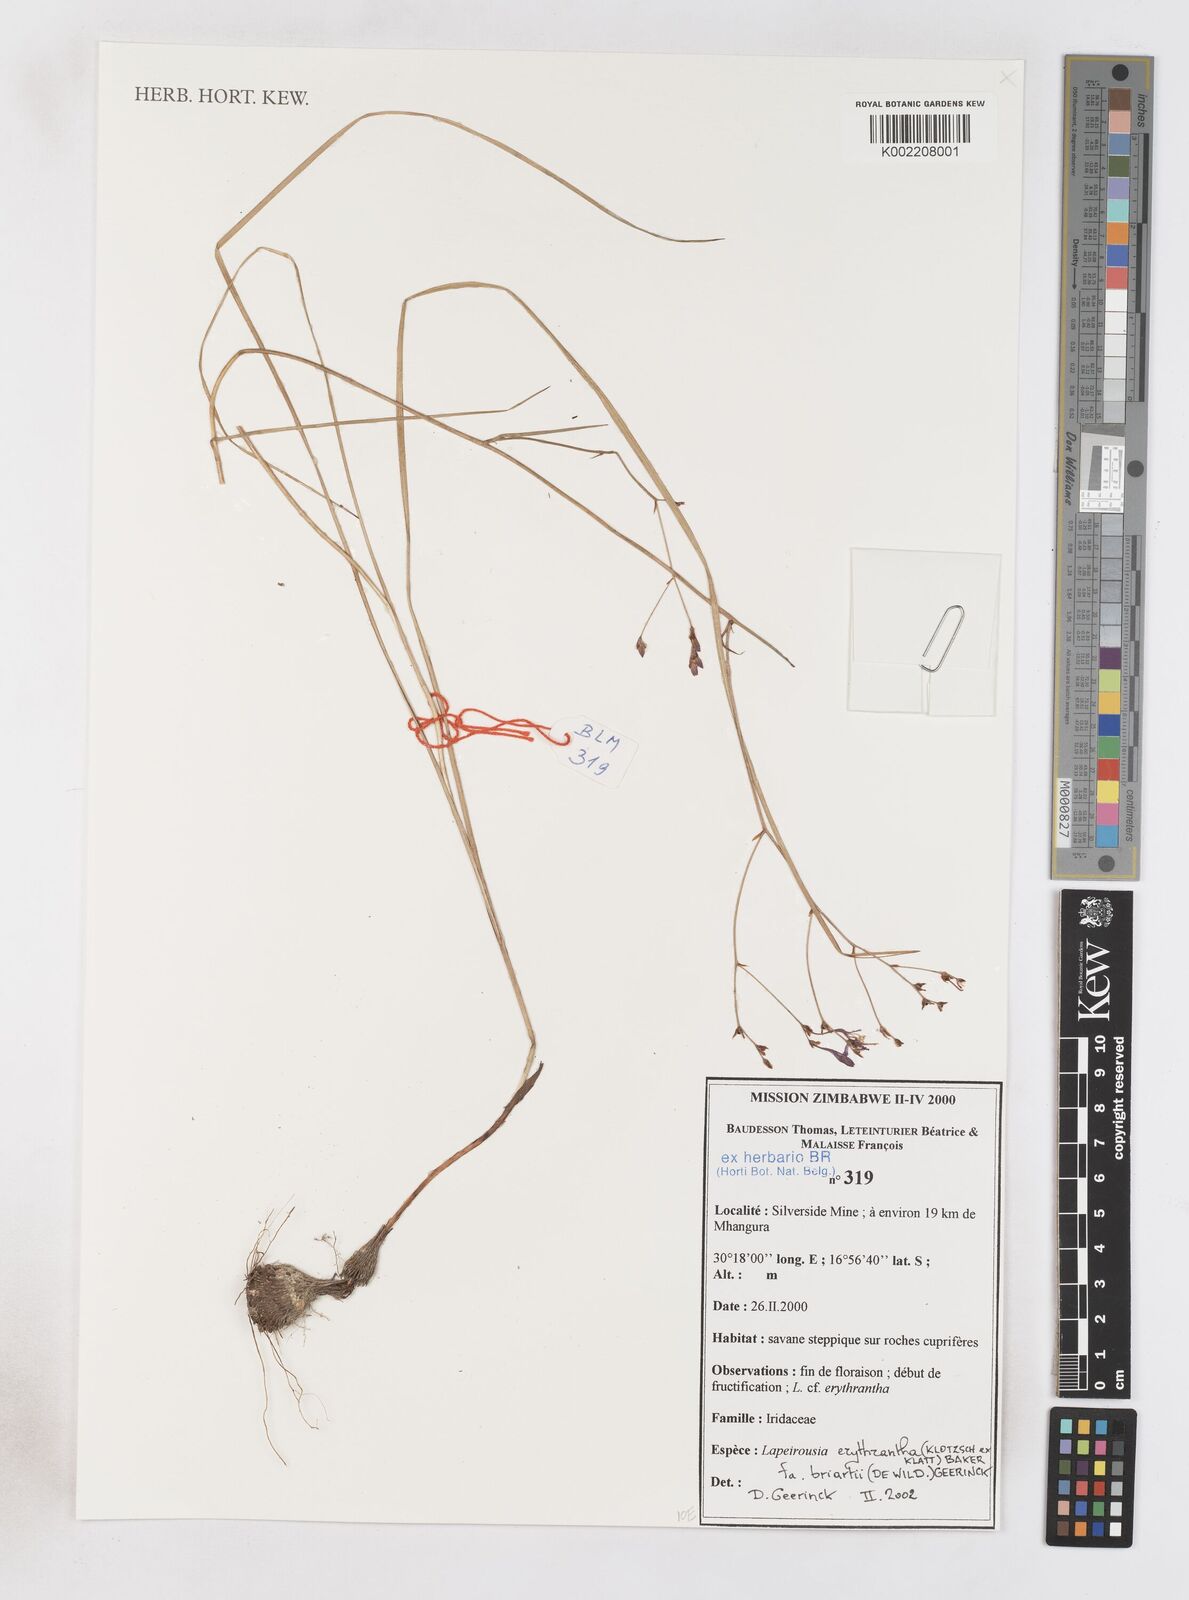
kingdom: Plantae
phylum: Tracheophyta
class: Liliopsida
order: Asparagales
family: Iridaceae
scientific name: Iridaceae
